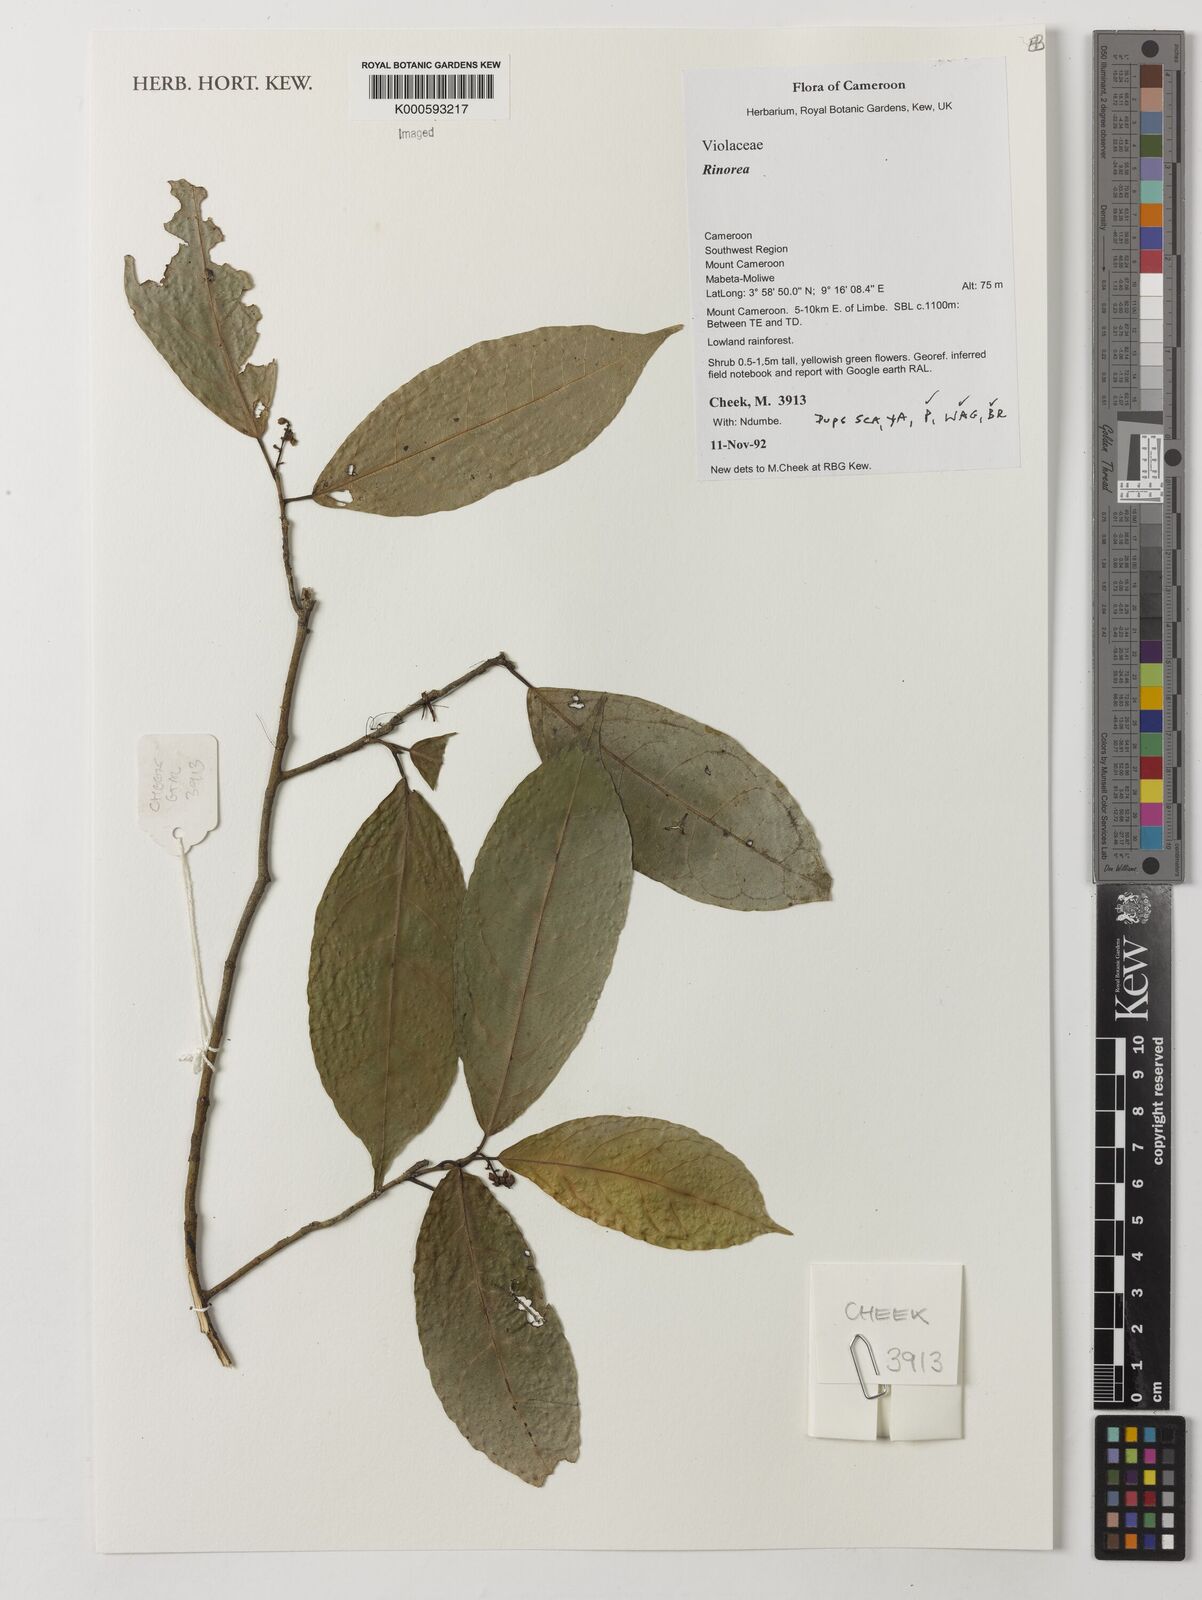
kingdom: Plantae
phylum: Tracheophyta
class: Magnoliopsida
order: Malpighiales
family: Violaceae
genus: Rinorea
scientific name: Rinorea
